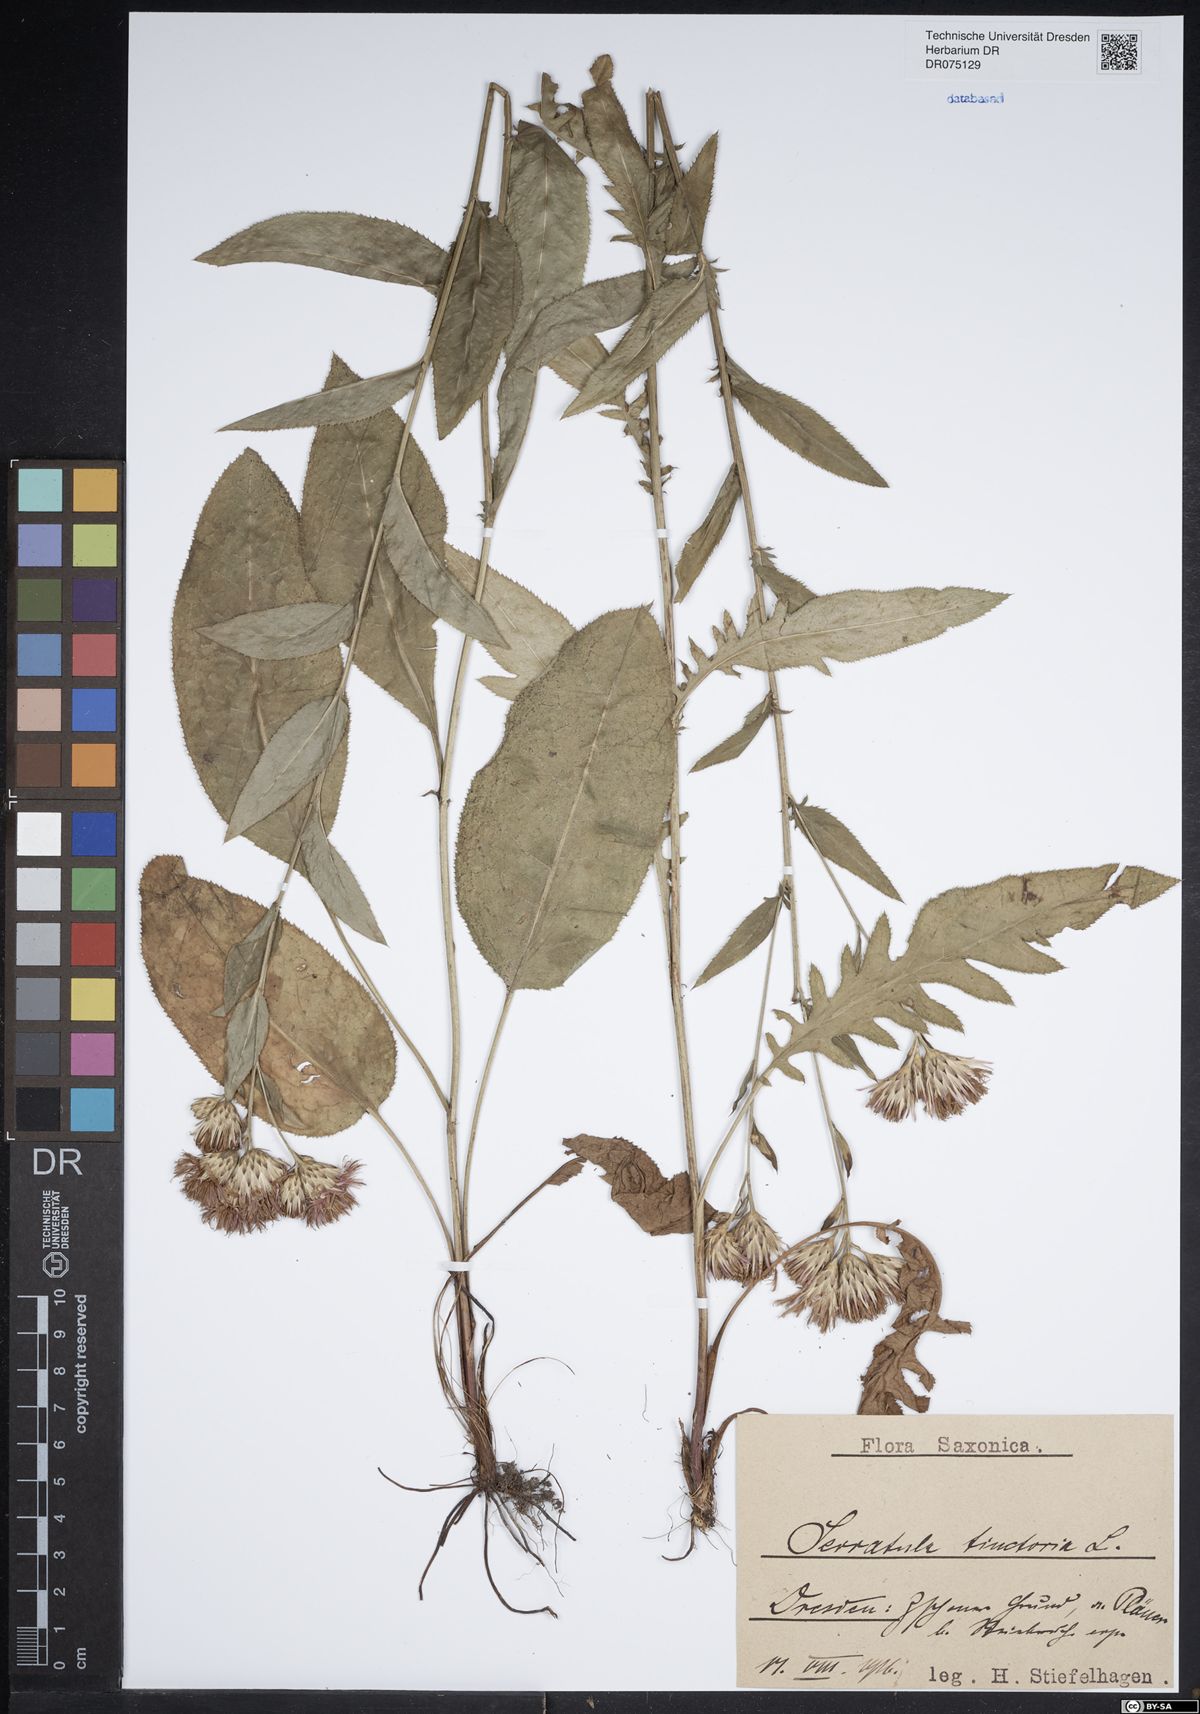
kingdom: Plantae
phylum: Tracheophyta
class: Magnoliopsida
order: Asterales
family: Asteraceae
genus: Serratula
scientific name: Serratula tinctoria
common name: Saw-wort
